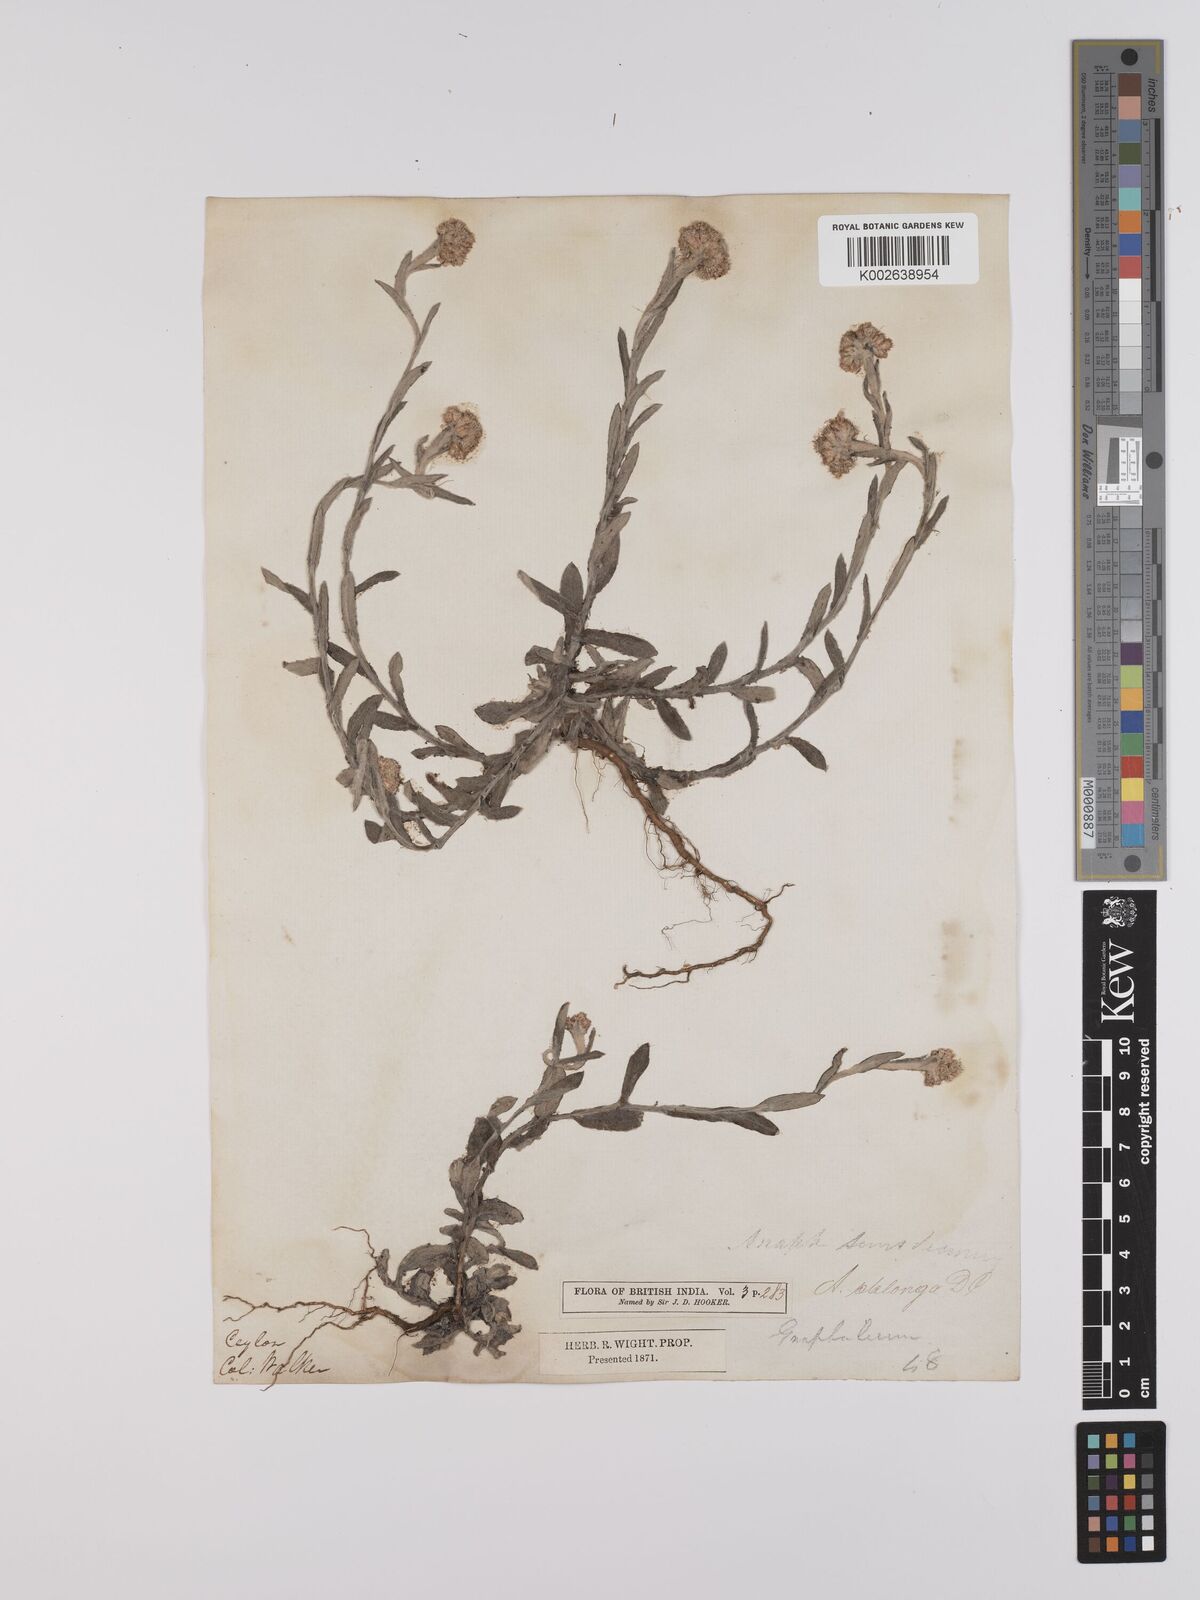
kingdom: Plantae
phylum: Tracheophyta
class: Magnoliopsida
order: Asterales
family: Asteraceae
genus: Anaphalis
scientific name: Anaphalis subdecurrens
